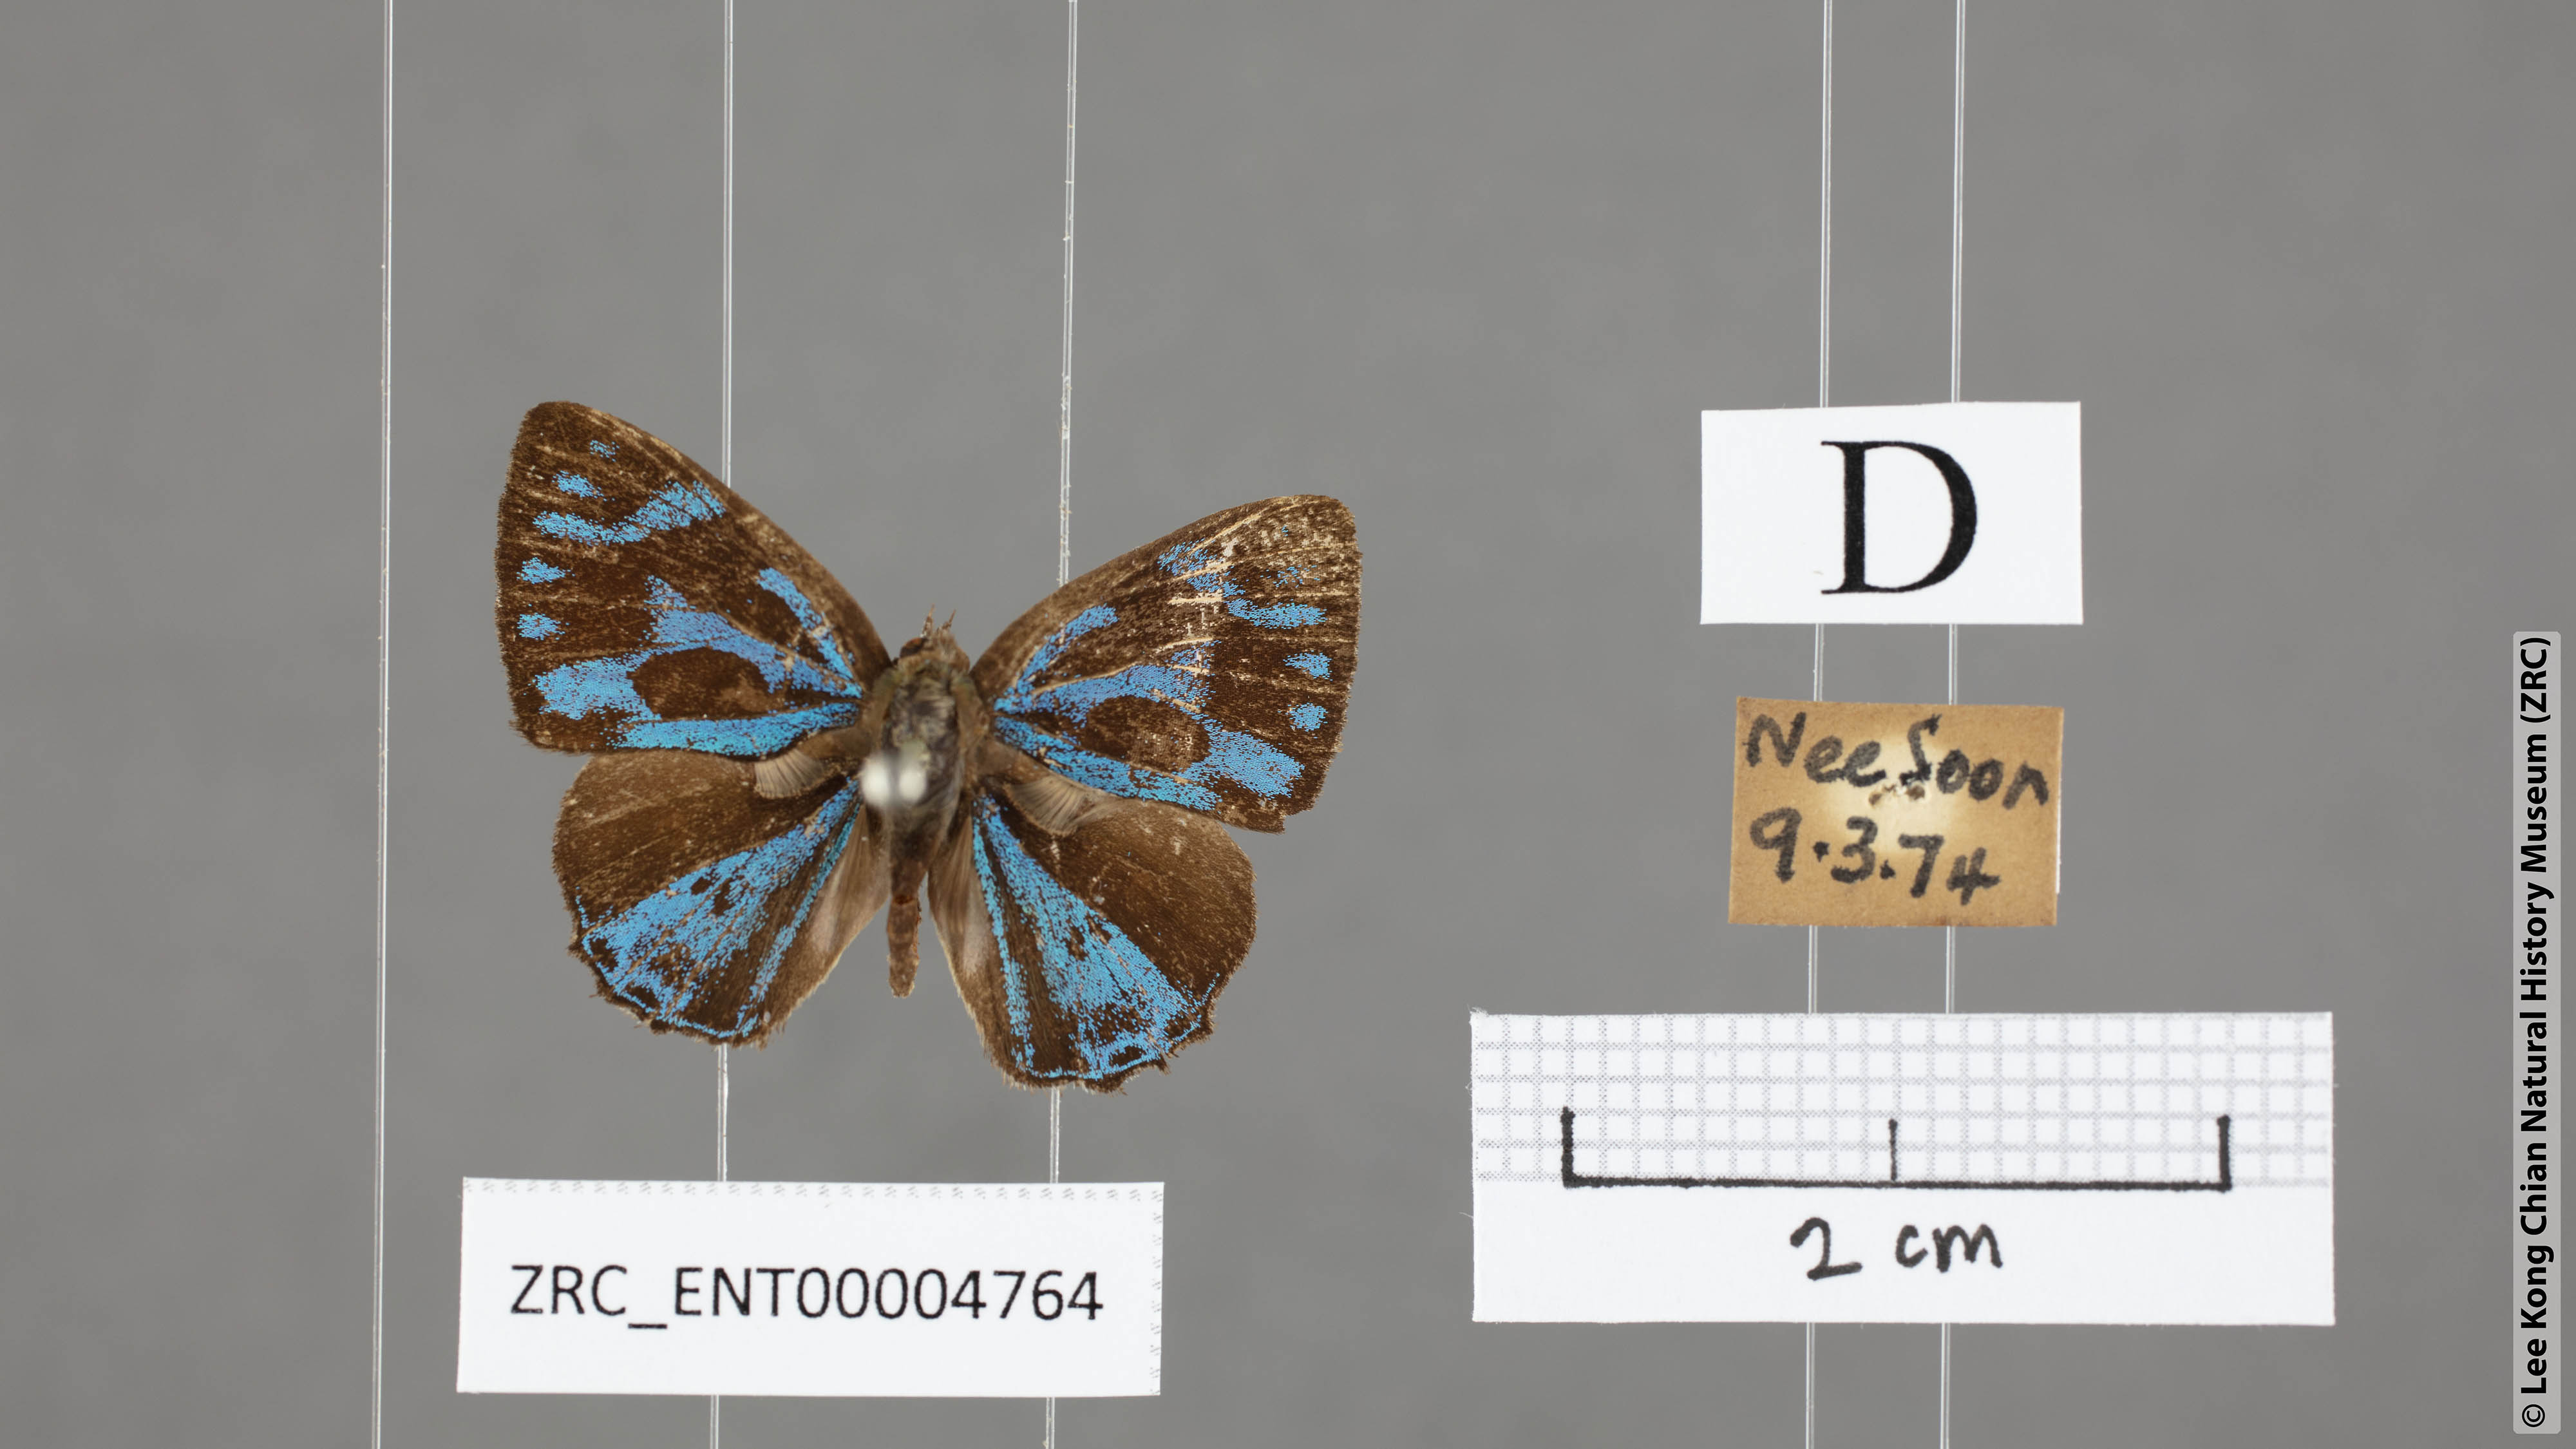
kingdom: Animalia
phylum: Arthropoda
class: Insecta
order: Lepidoptera
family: Lycaenidae
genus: Poritia
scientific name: Poritia philota
